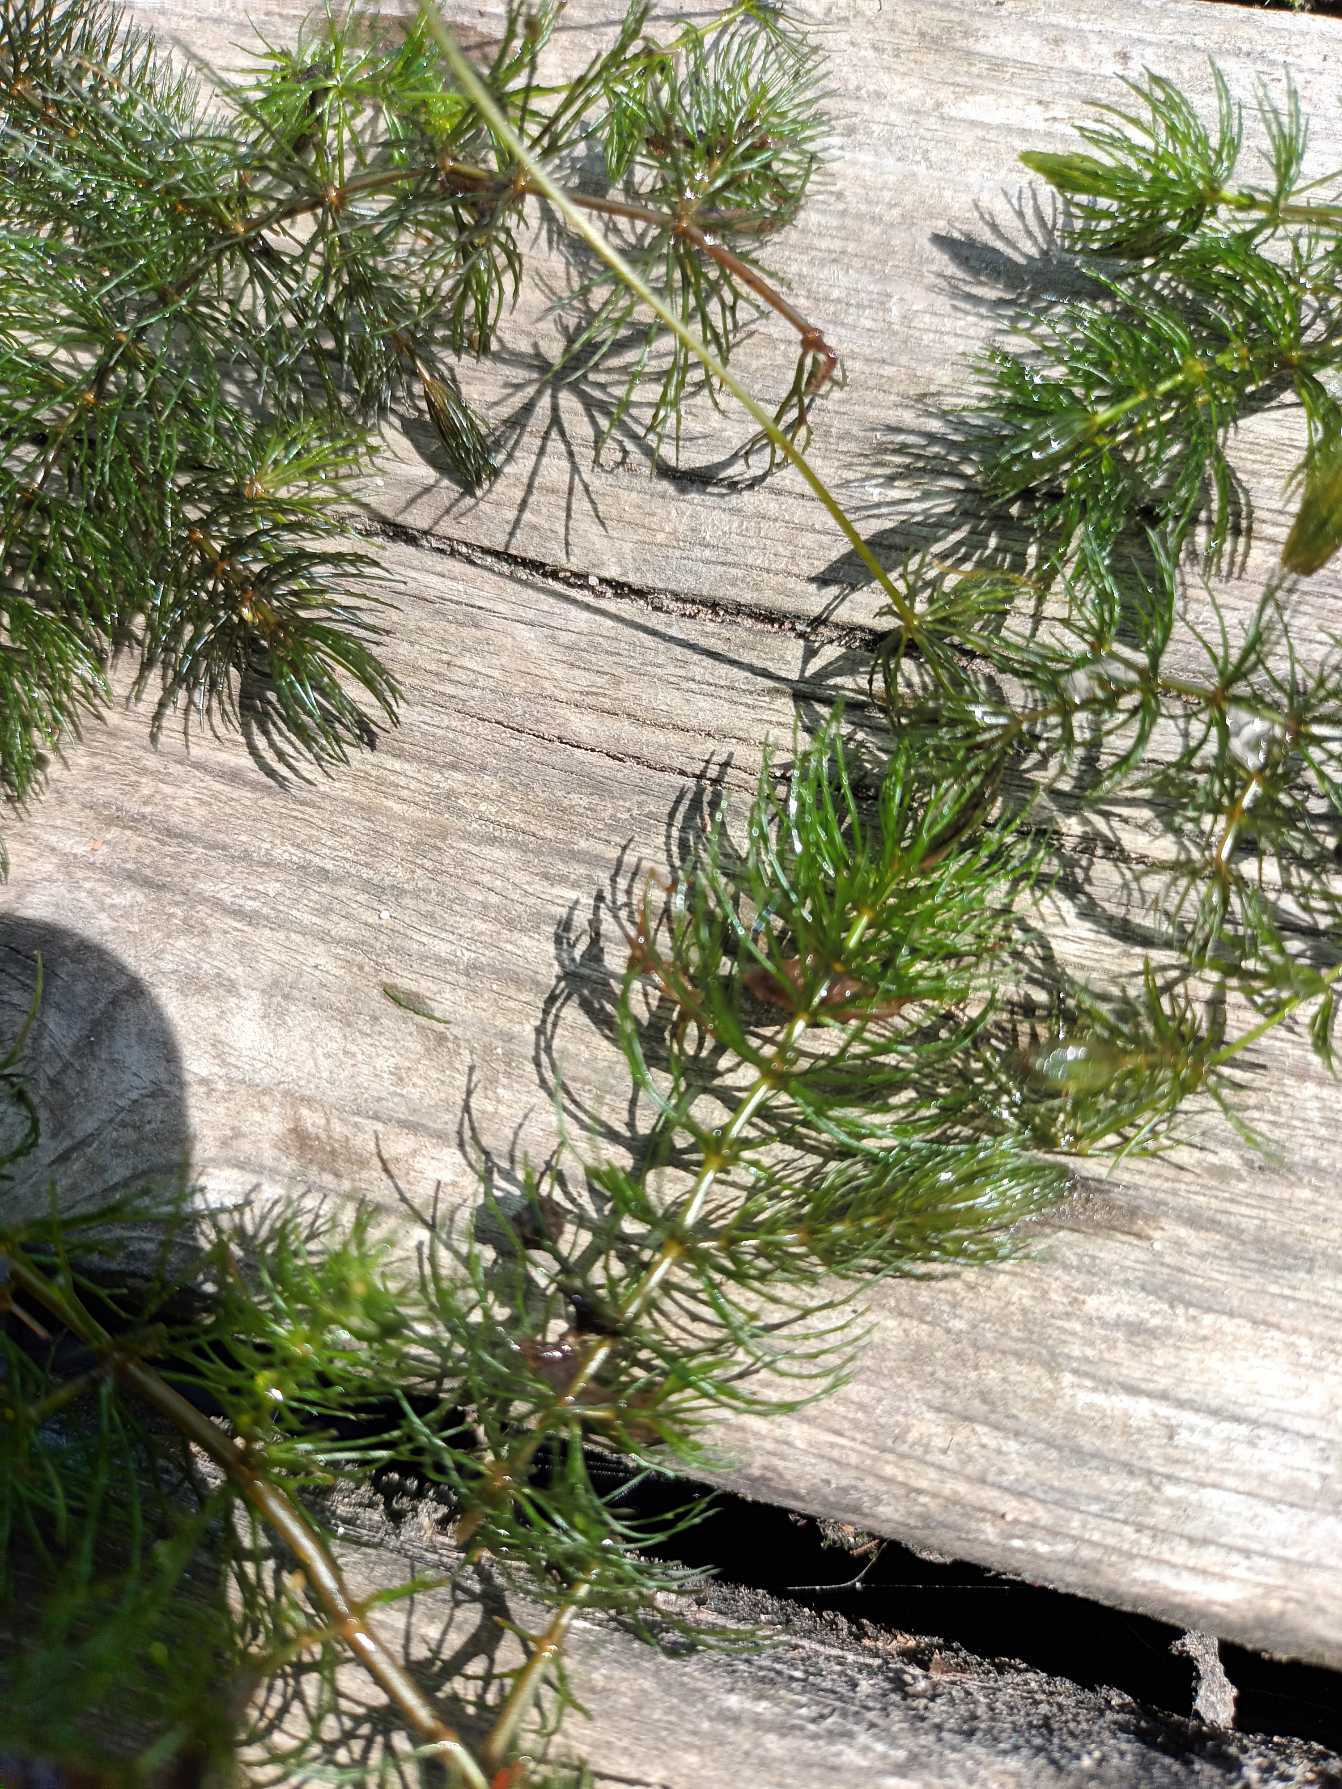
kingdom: Plantae
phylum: Tracheophyta
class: Magnoliopsida
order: Ceratophyllales
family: Ceratophyllaceae
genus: Ceratophyllum
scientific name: Ceratophyllum demersum
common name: Tornfrøet hornblad
